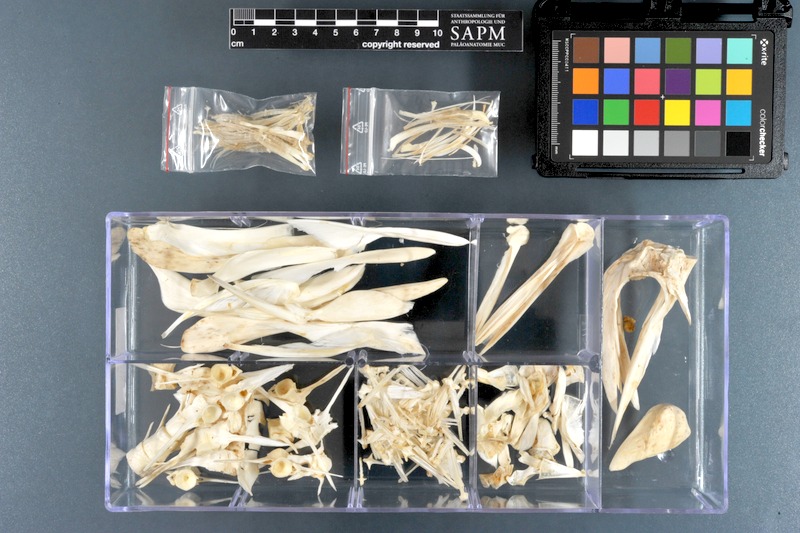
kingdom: Animalia
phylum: Chordata
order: Tetraodontiformes
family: Monacanthidae
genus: Aluterus
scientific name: Aluterus monoceros
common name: Batfish
